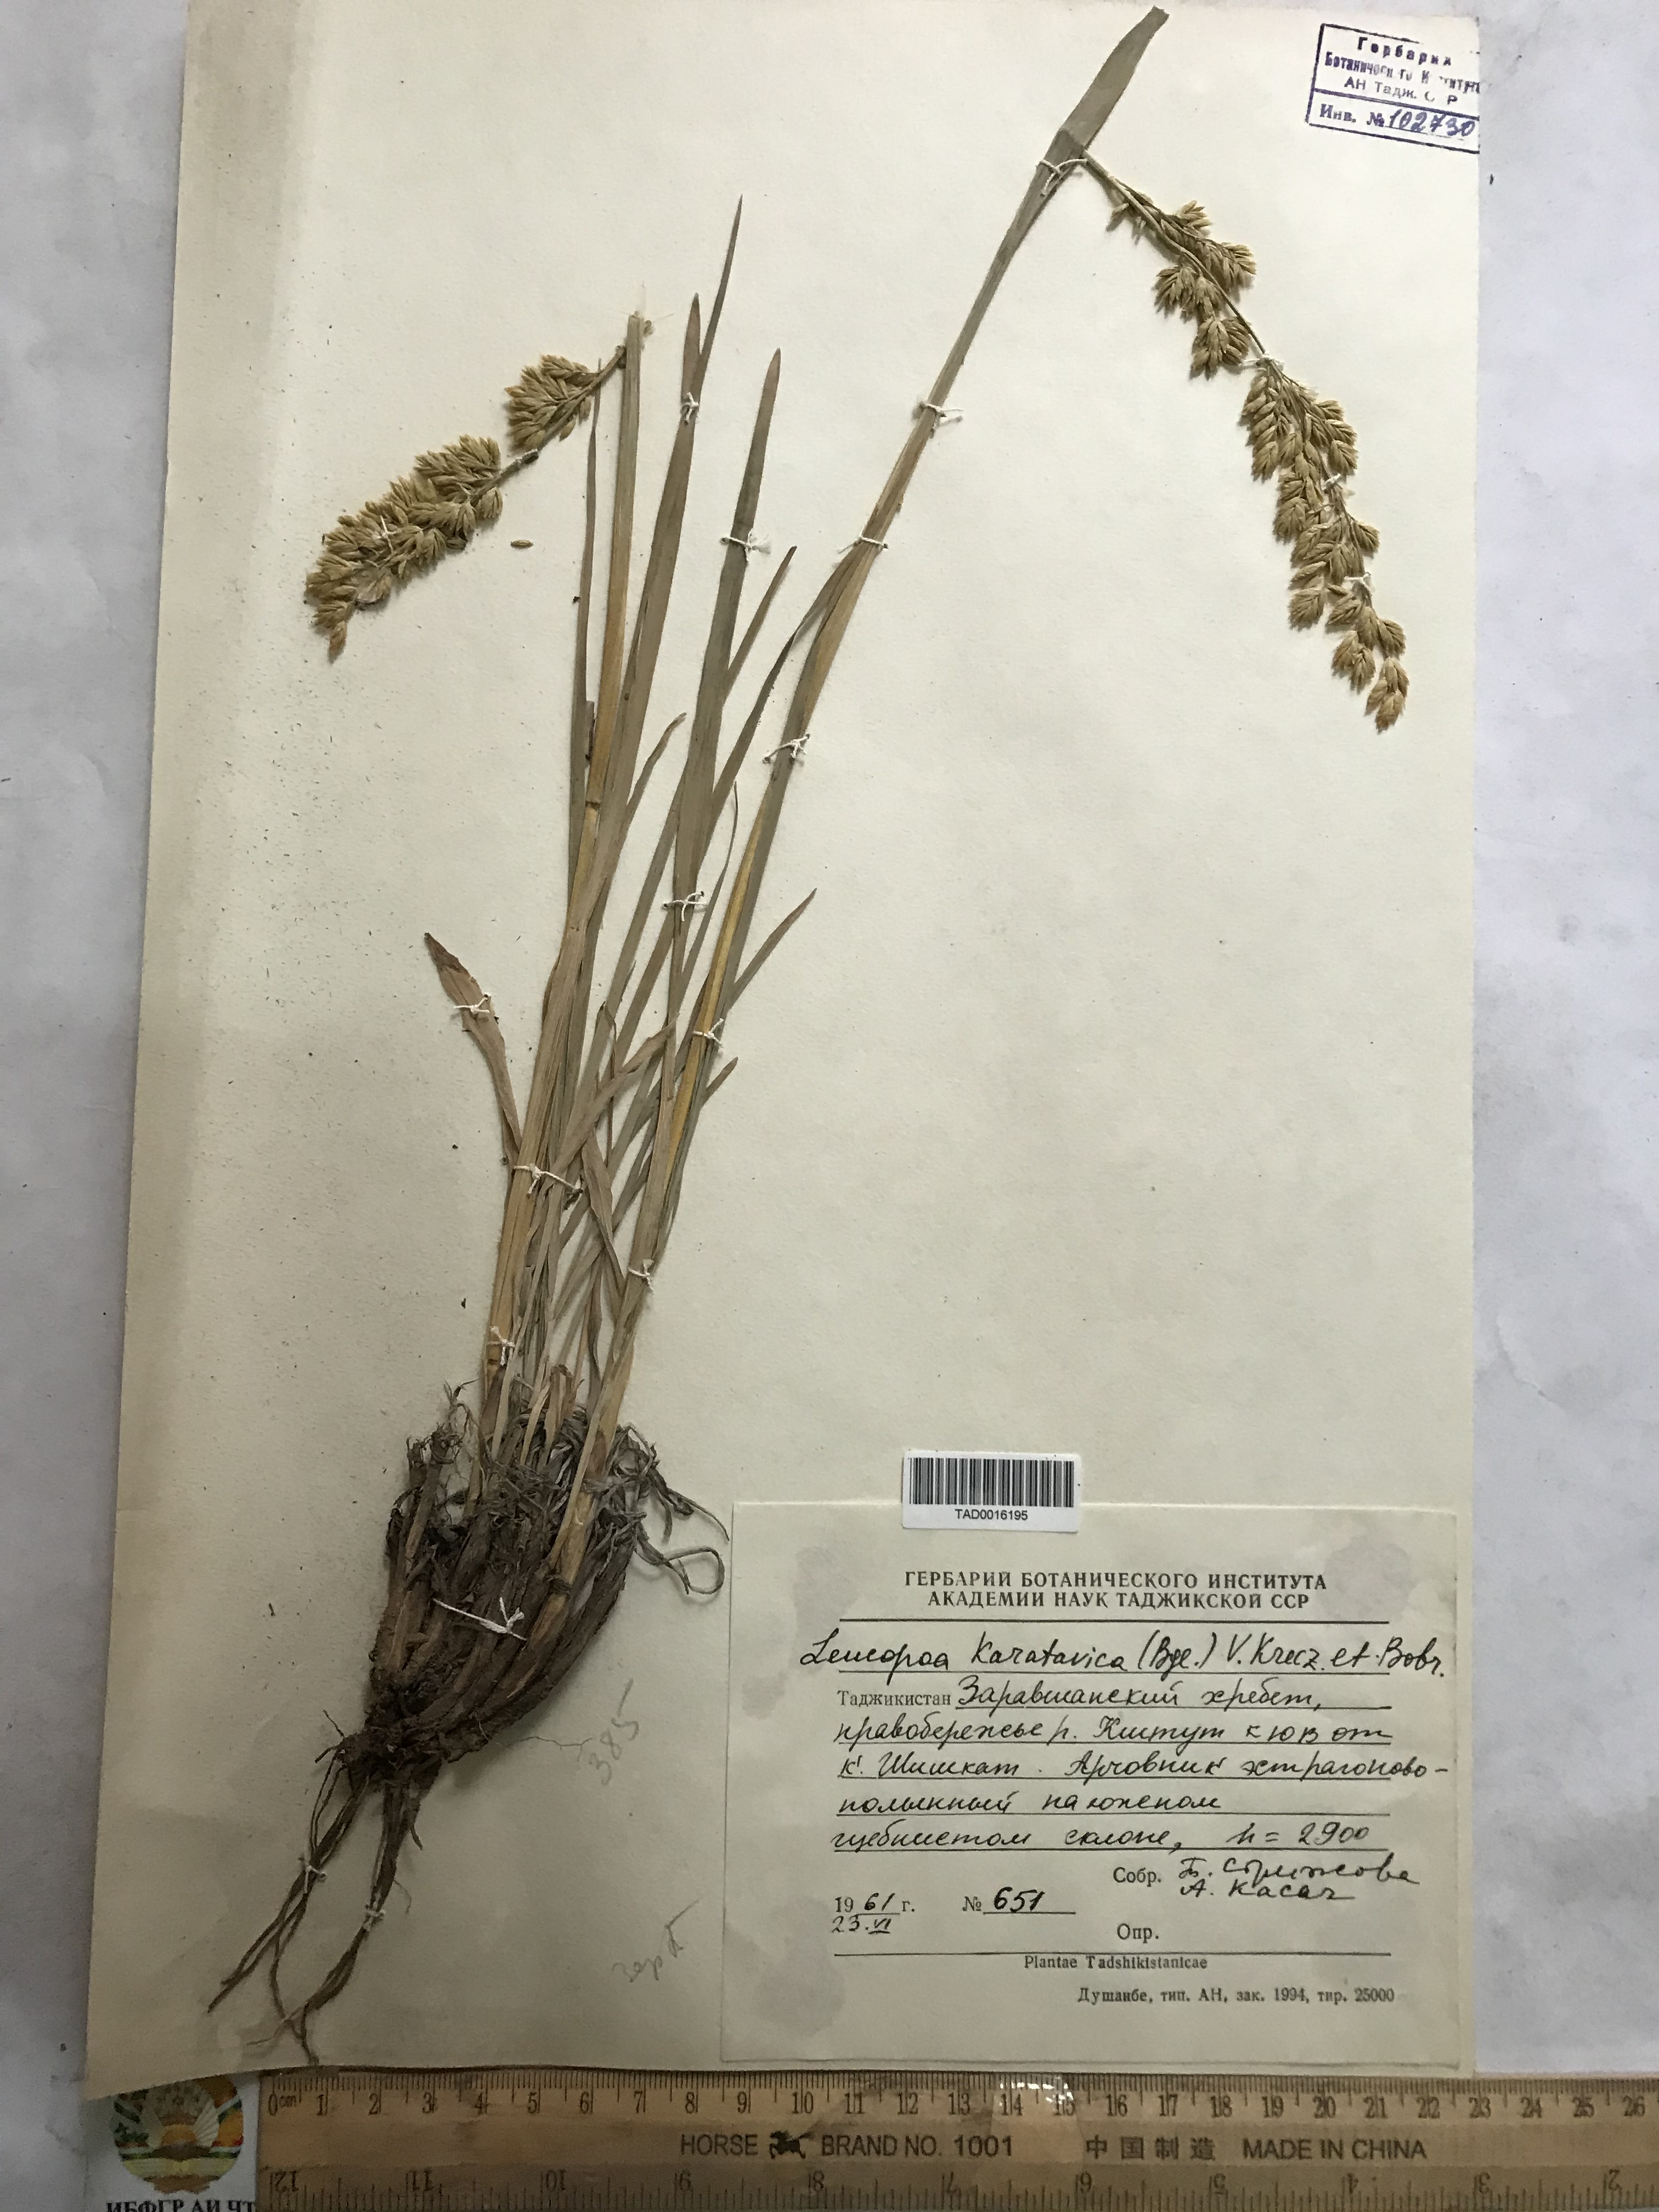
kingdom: Plantae
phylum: Tracheophyta
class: Liliopsida
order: Poales
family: Poaceae
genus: Festuca
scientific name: Festuca karatavica
